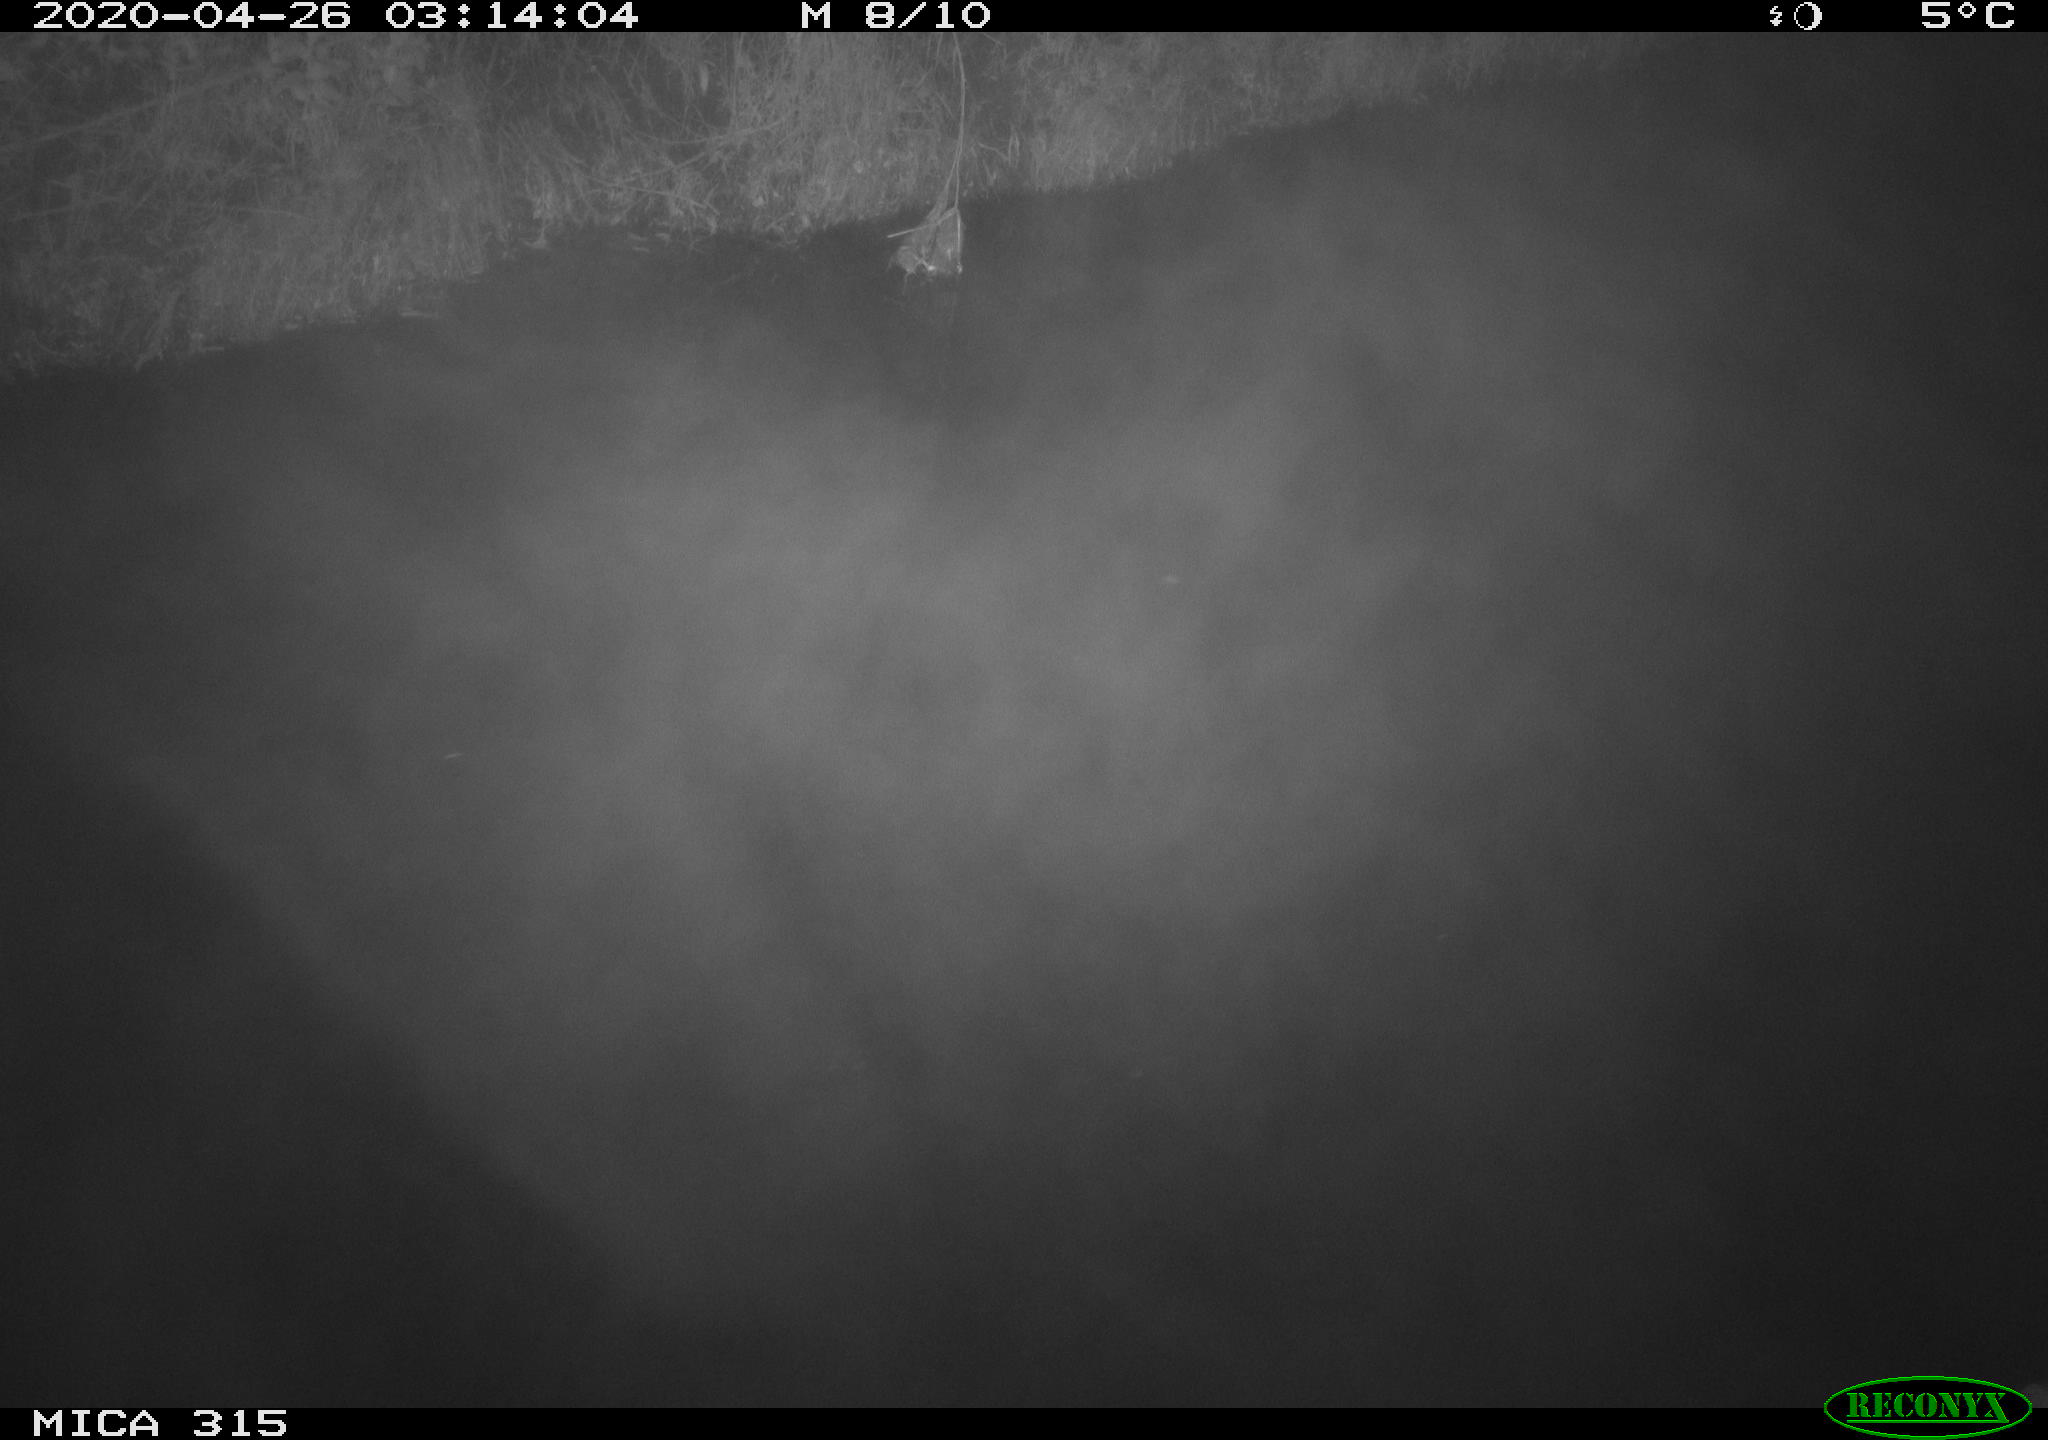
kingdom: Animalia
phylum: Chordata
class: Aves
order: Anseriformes
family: Anatidae
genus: Anas
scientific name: Anas platyrhynchos
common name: Mallard
